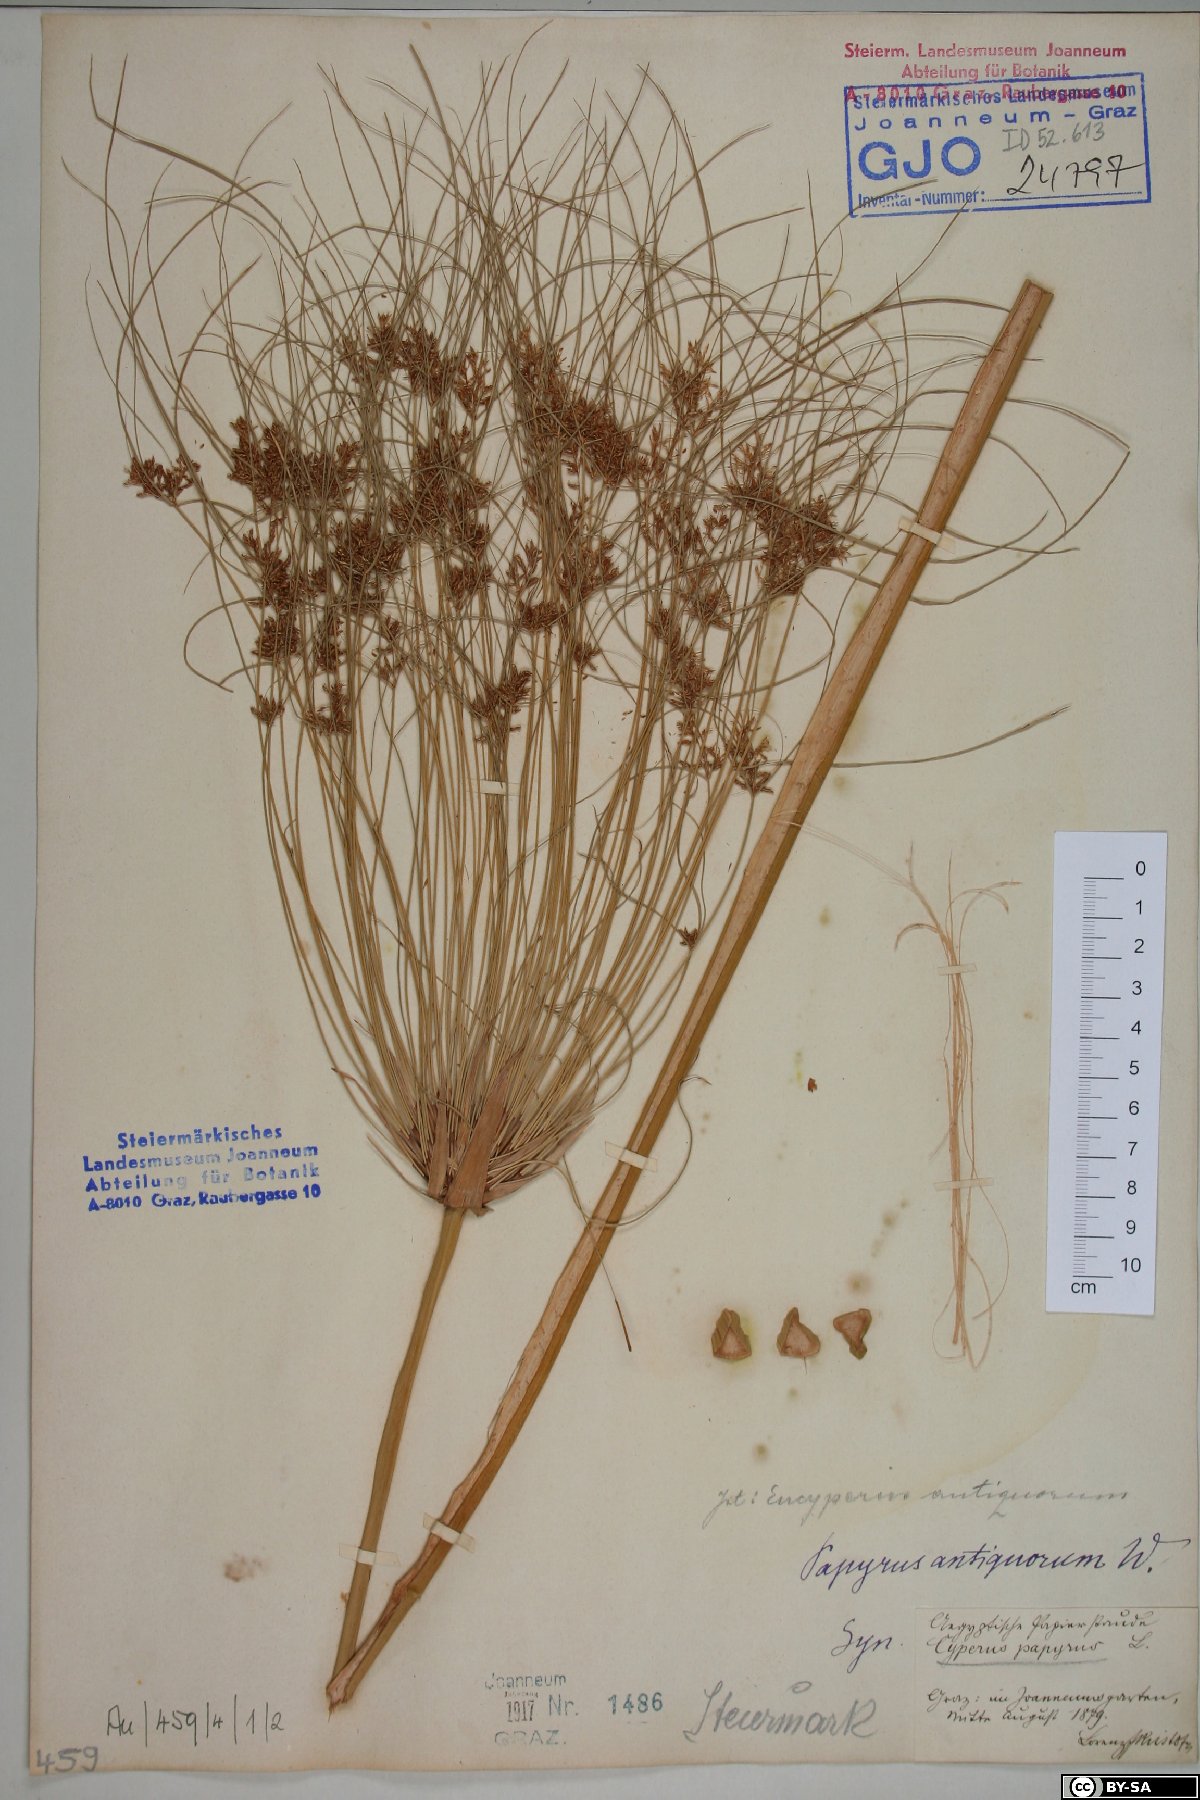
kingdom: Plantae
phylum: Tracheophyta
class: Liliopsida
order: Poales
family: Cyperaceae
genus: Cyperus
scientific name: Cyperus papyrus
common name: Papyrus
